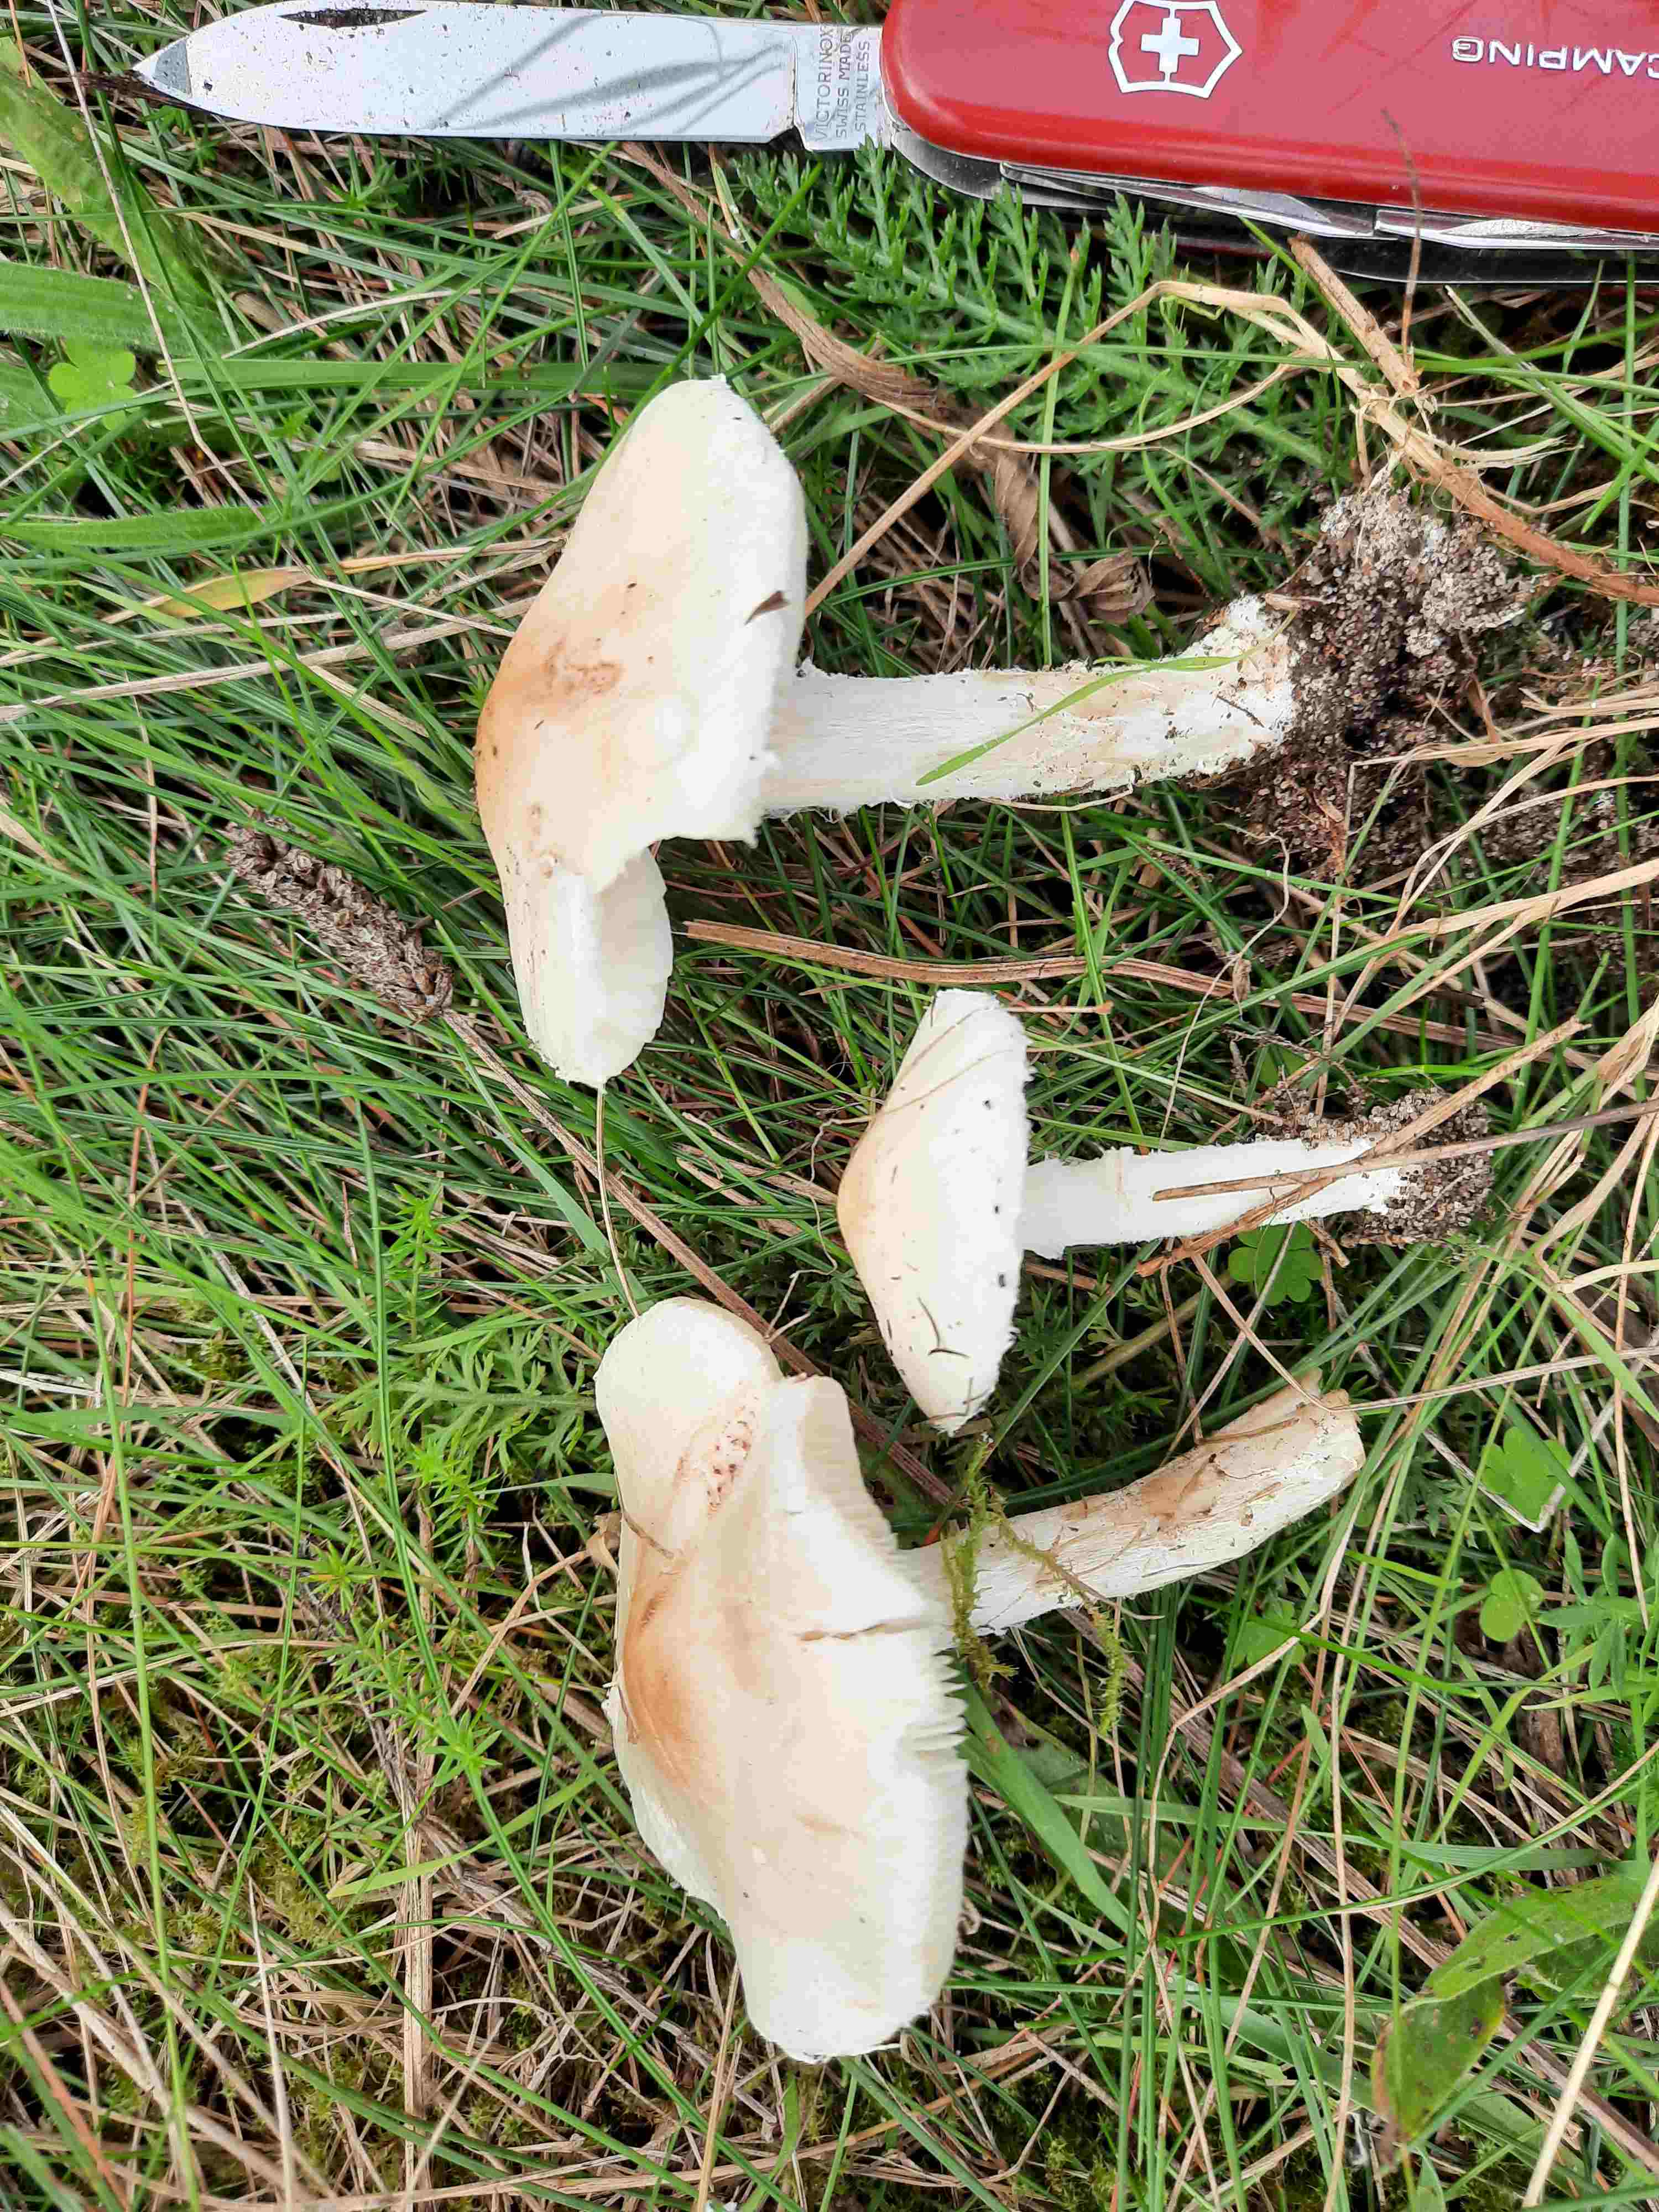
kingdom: Fungi
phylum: Basidiomycota
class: Agaricomycetes
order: Agaricales
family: Agaricaceae
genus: Lepiota
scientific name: Lepiota erminea
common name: hvid parasolhat
